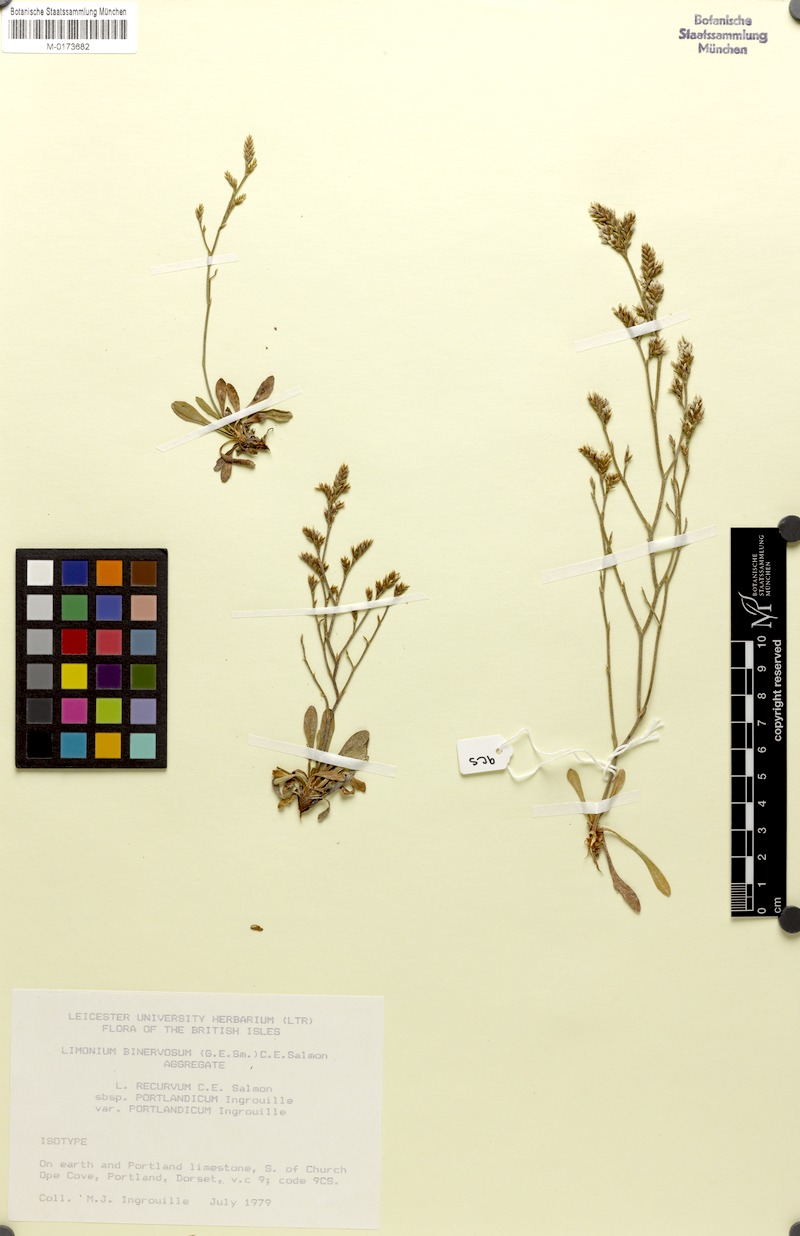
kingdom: Plantae
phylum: Tracheophyta
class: Magnoliopsida
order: Caryophyllales
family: Plumbaginaceae
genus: Limonium
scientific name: Limonium recurvum
